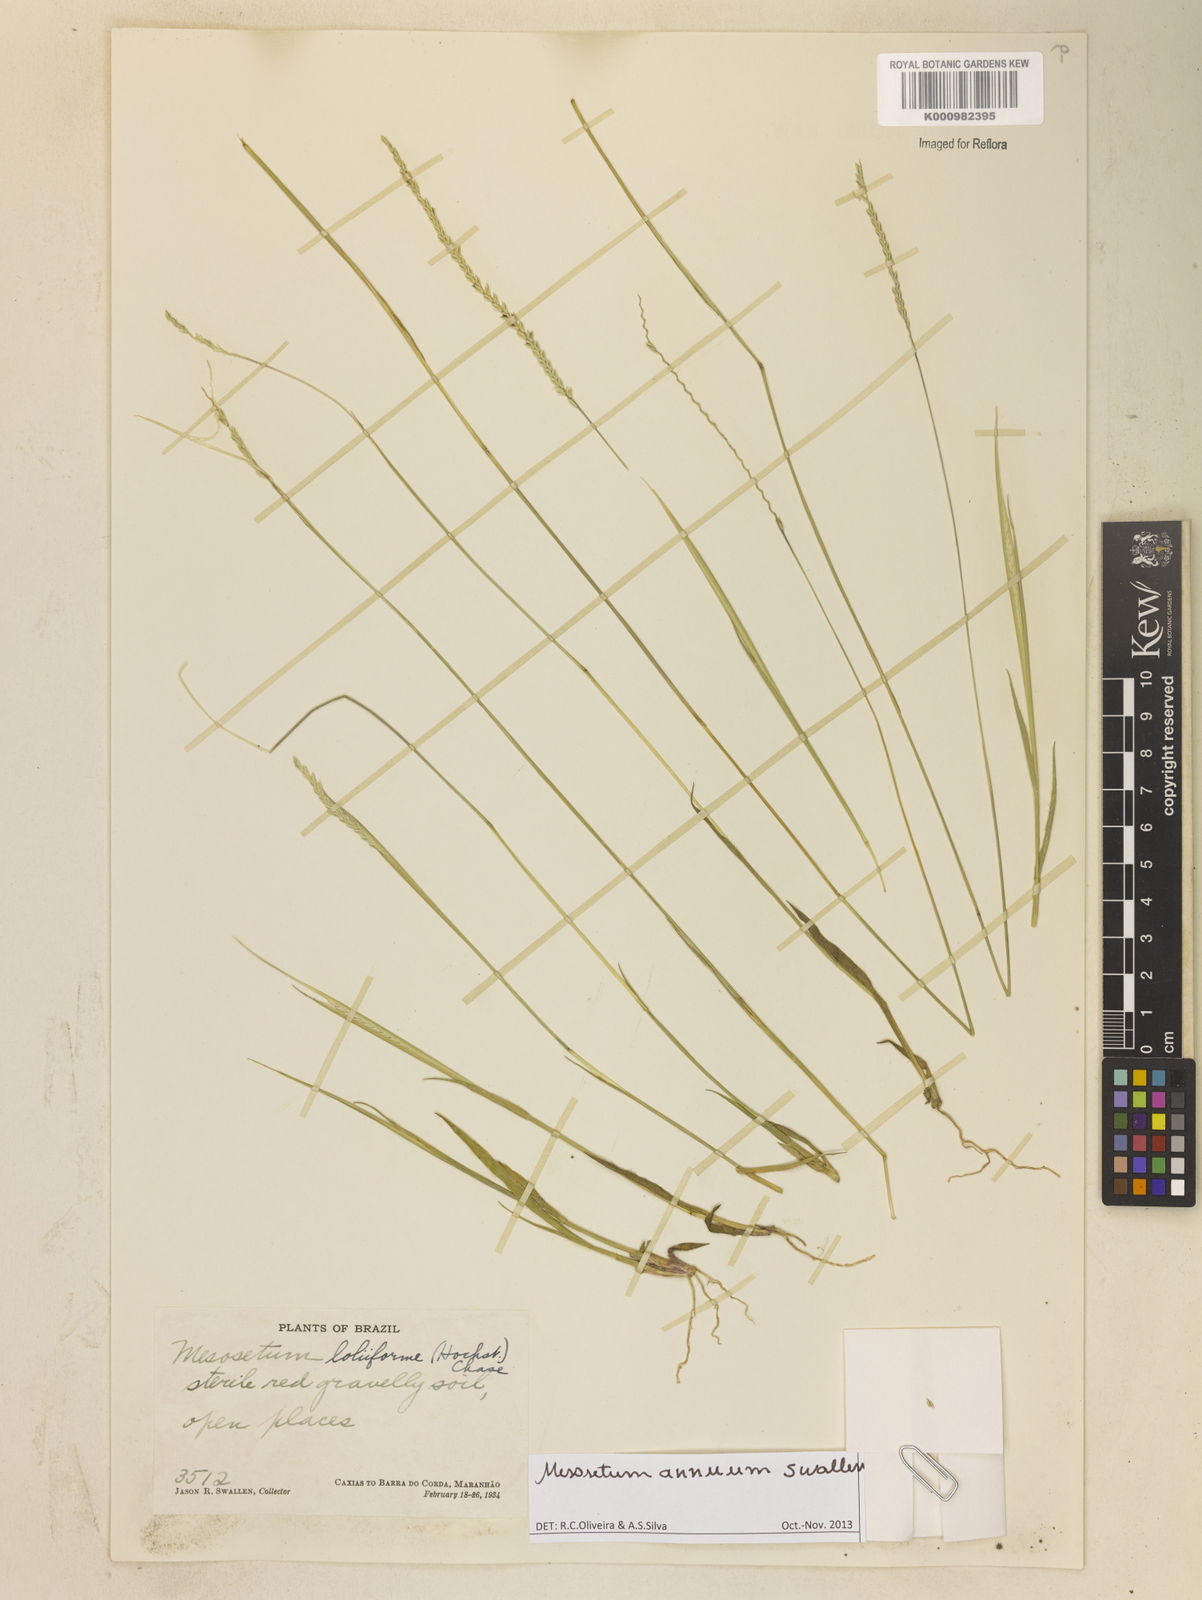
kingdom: Plantae
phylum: Tracheophyta
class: Liliopsida
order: Poales
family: Poaceae
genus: Mesosetum
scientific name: Mesosetum annuum
